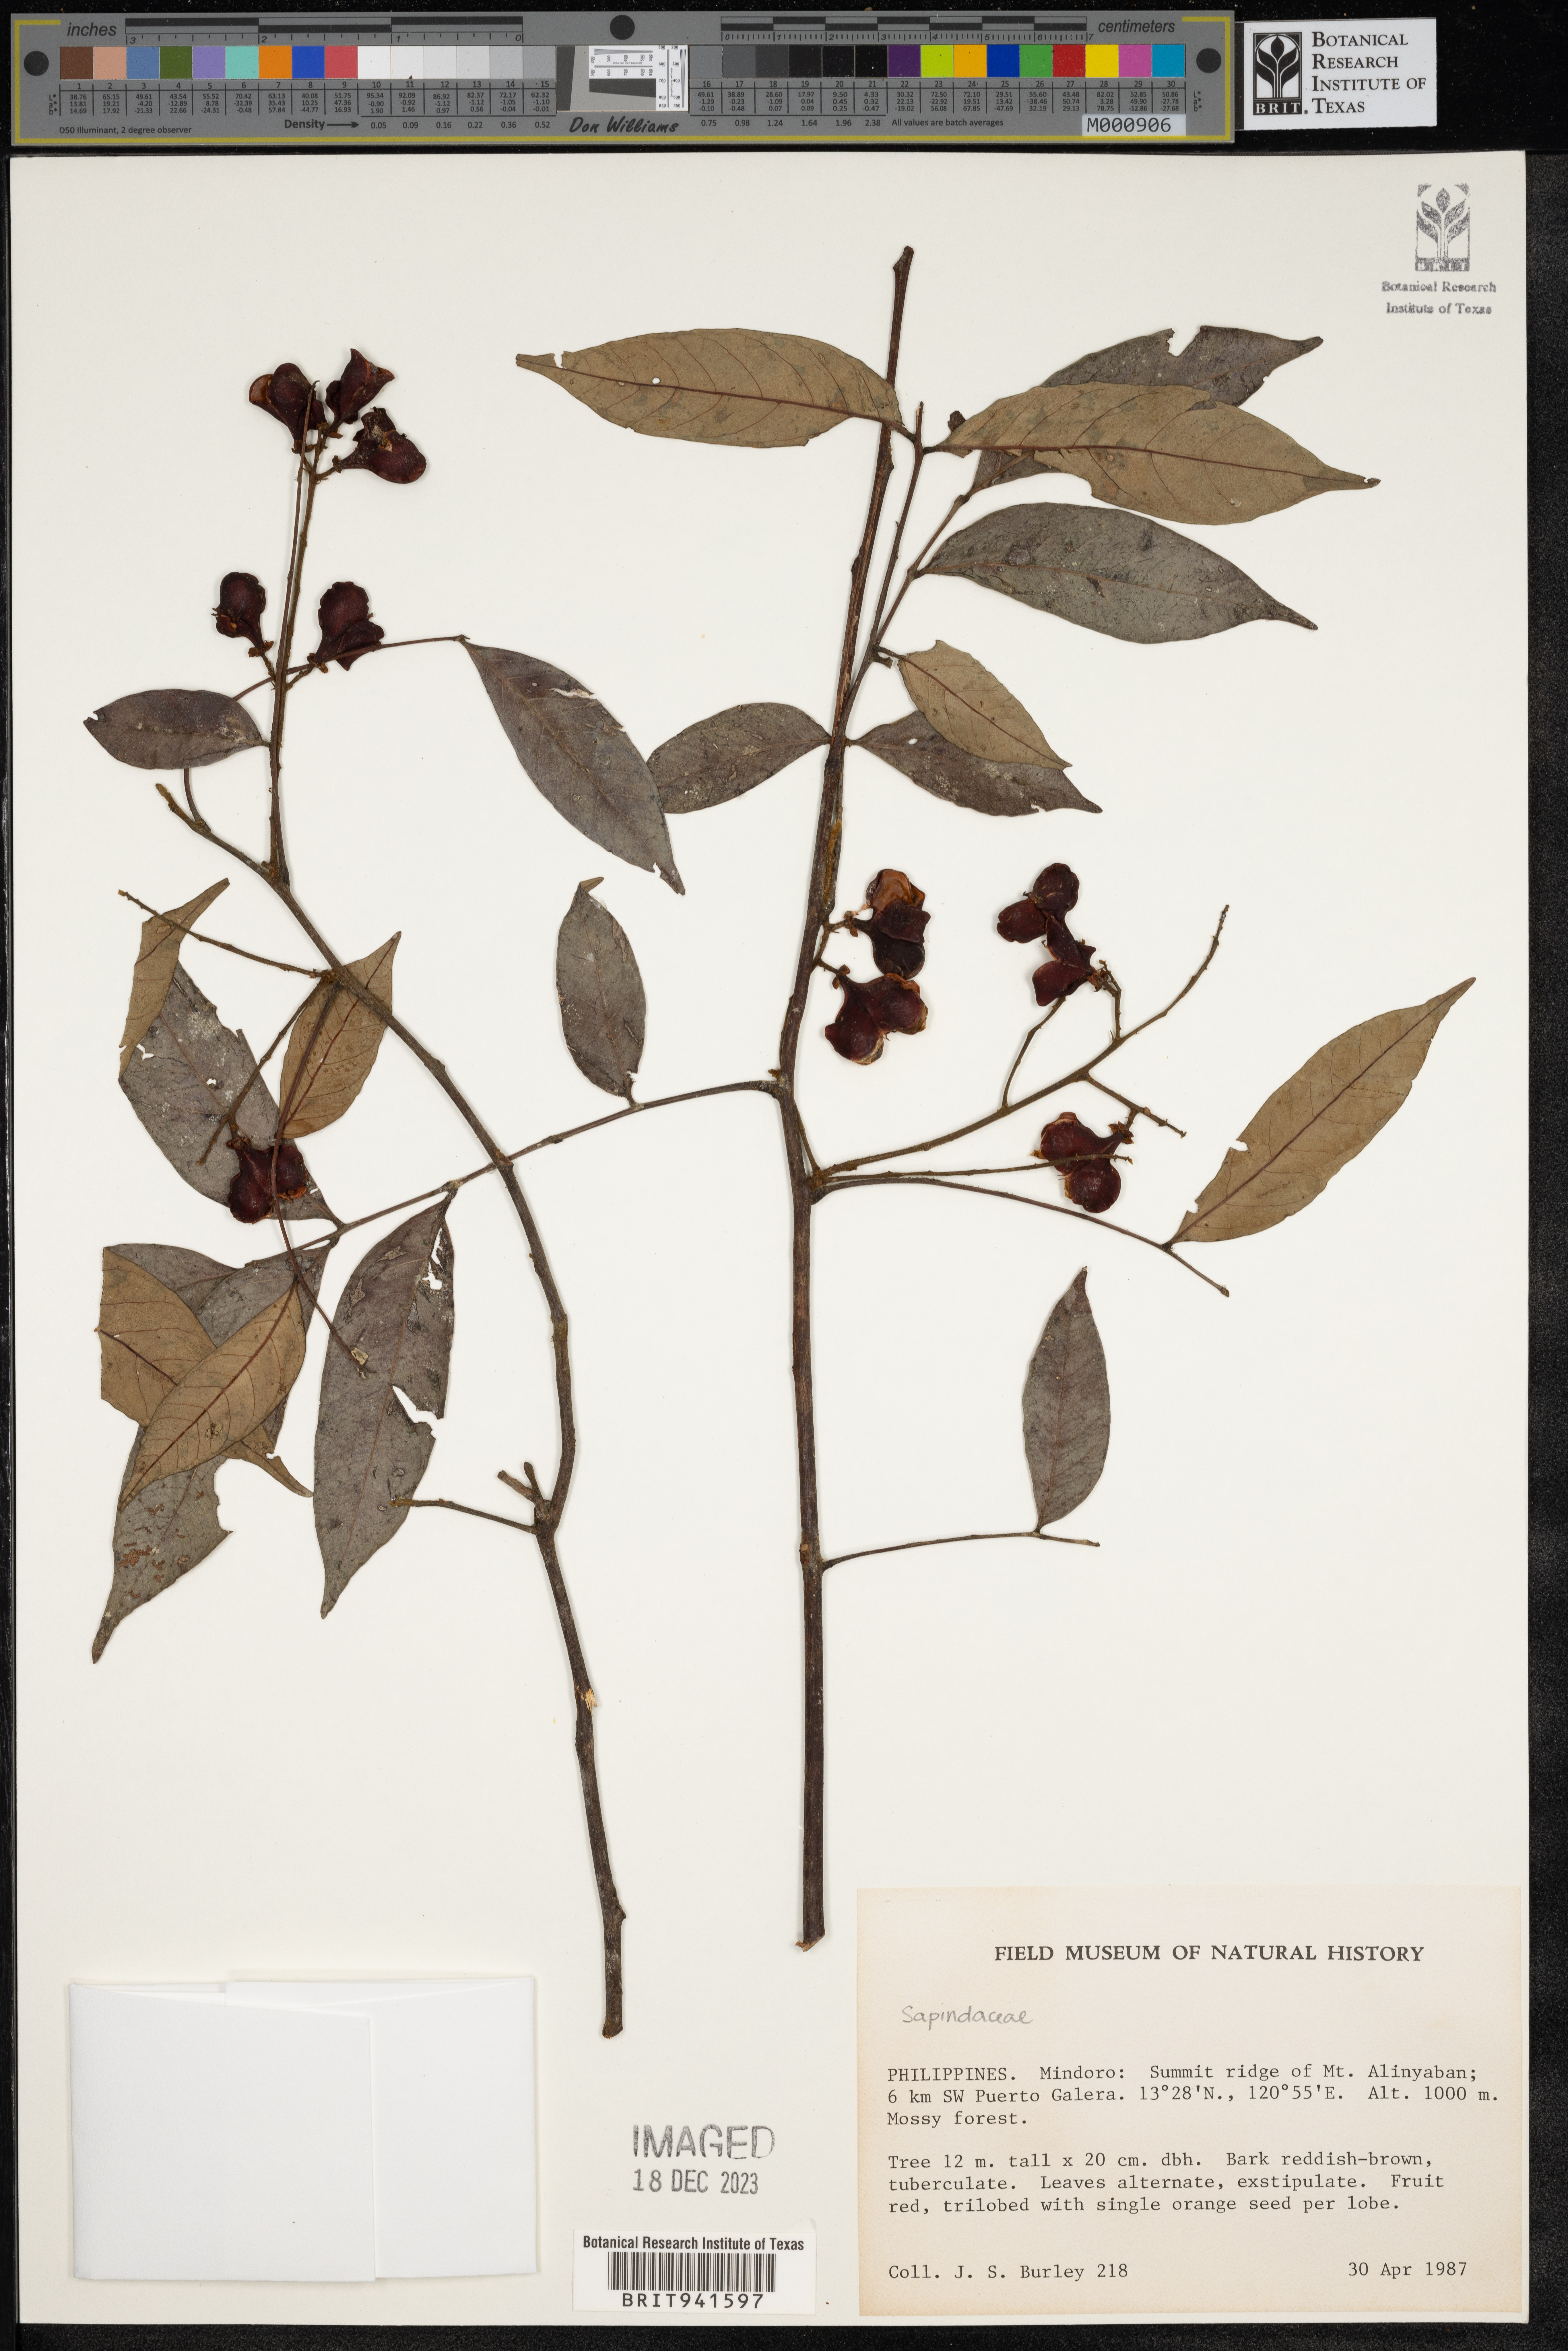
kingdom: Plantae
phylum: Tracheophyta
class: Magnoliopsida
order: Sapindales
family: Sapindaceae
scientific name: Sapindaceae
